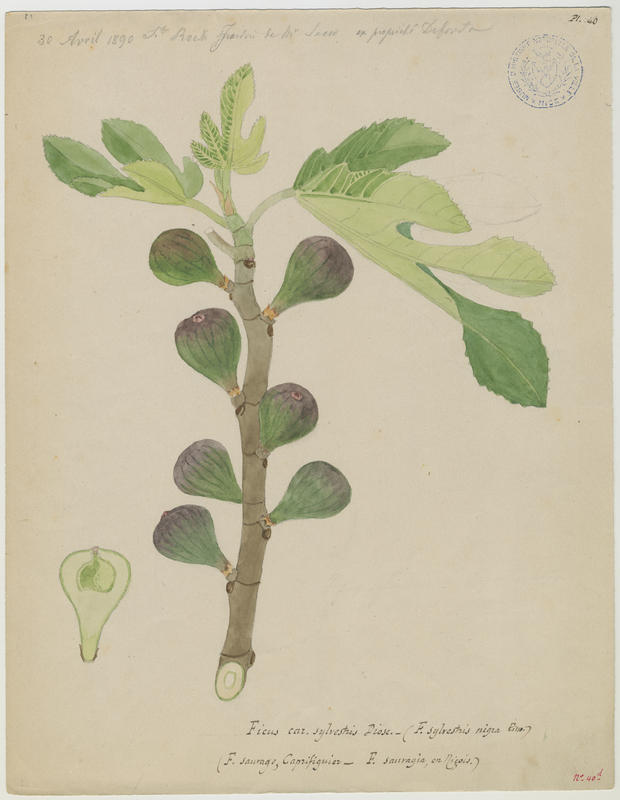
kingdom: Plantae
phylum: Tracheophyta
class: Magnoliopsida
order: Rosales
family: Moraceae
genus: Ficus
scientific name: Ficus carica
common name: Fig
